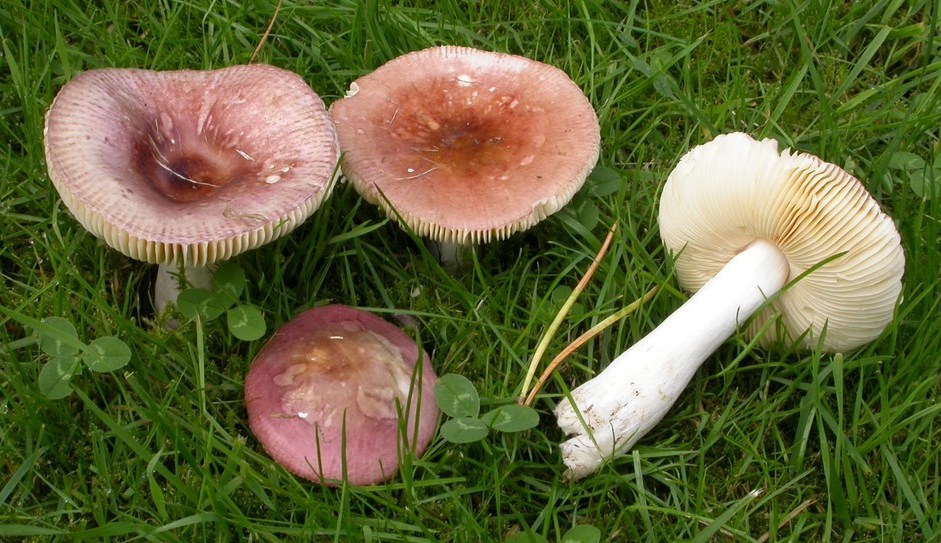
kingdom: Fungi
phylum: Basidiomycota
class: Agaricomycetes
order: Russulales
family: Russulaceae
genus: Russula
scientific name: Russula cessans
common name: fyrre-skørhat
